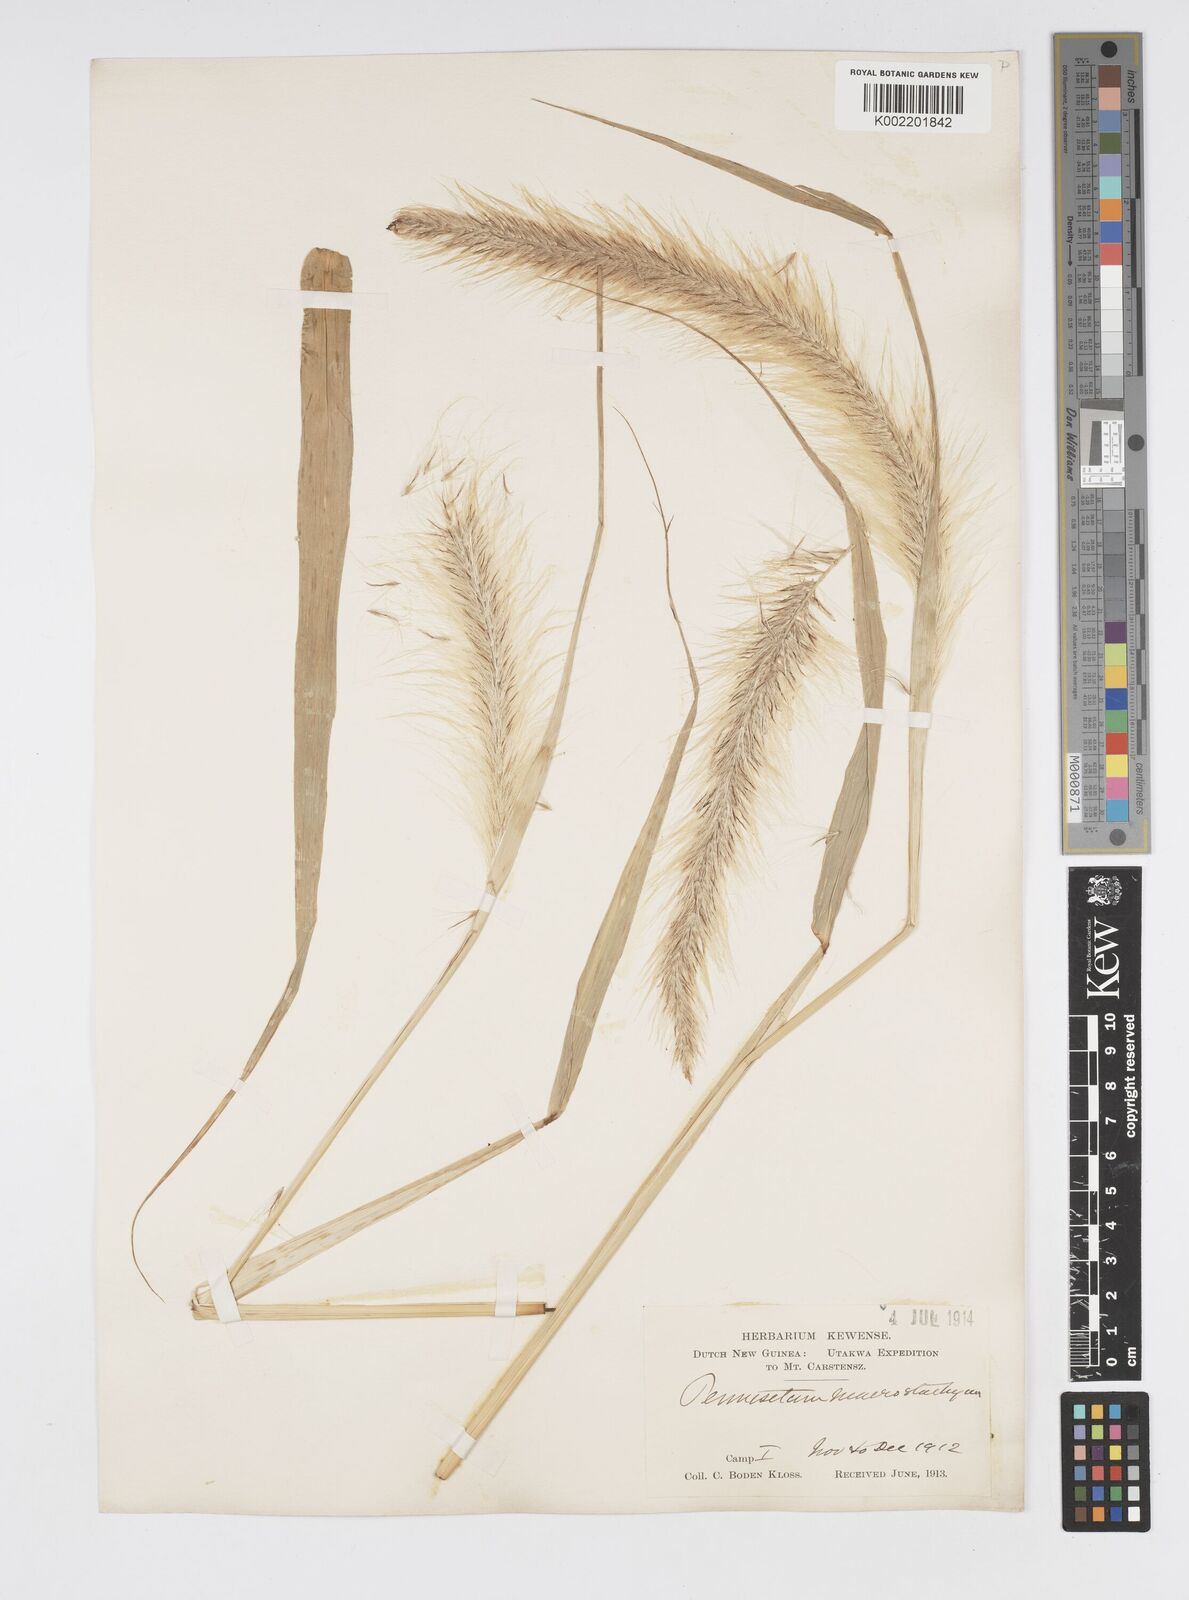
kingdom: Plantae
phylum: Tracheophyta
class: Liliopsida
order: Poales
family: Poaceae
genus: Cenchrus
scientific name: Cenchrus purpureus
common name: Elephant grass
